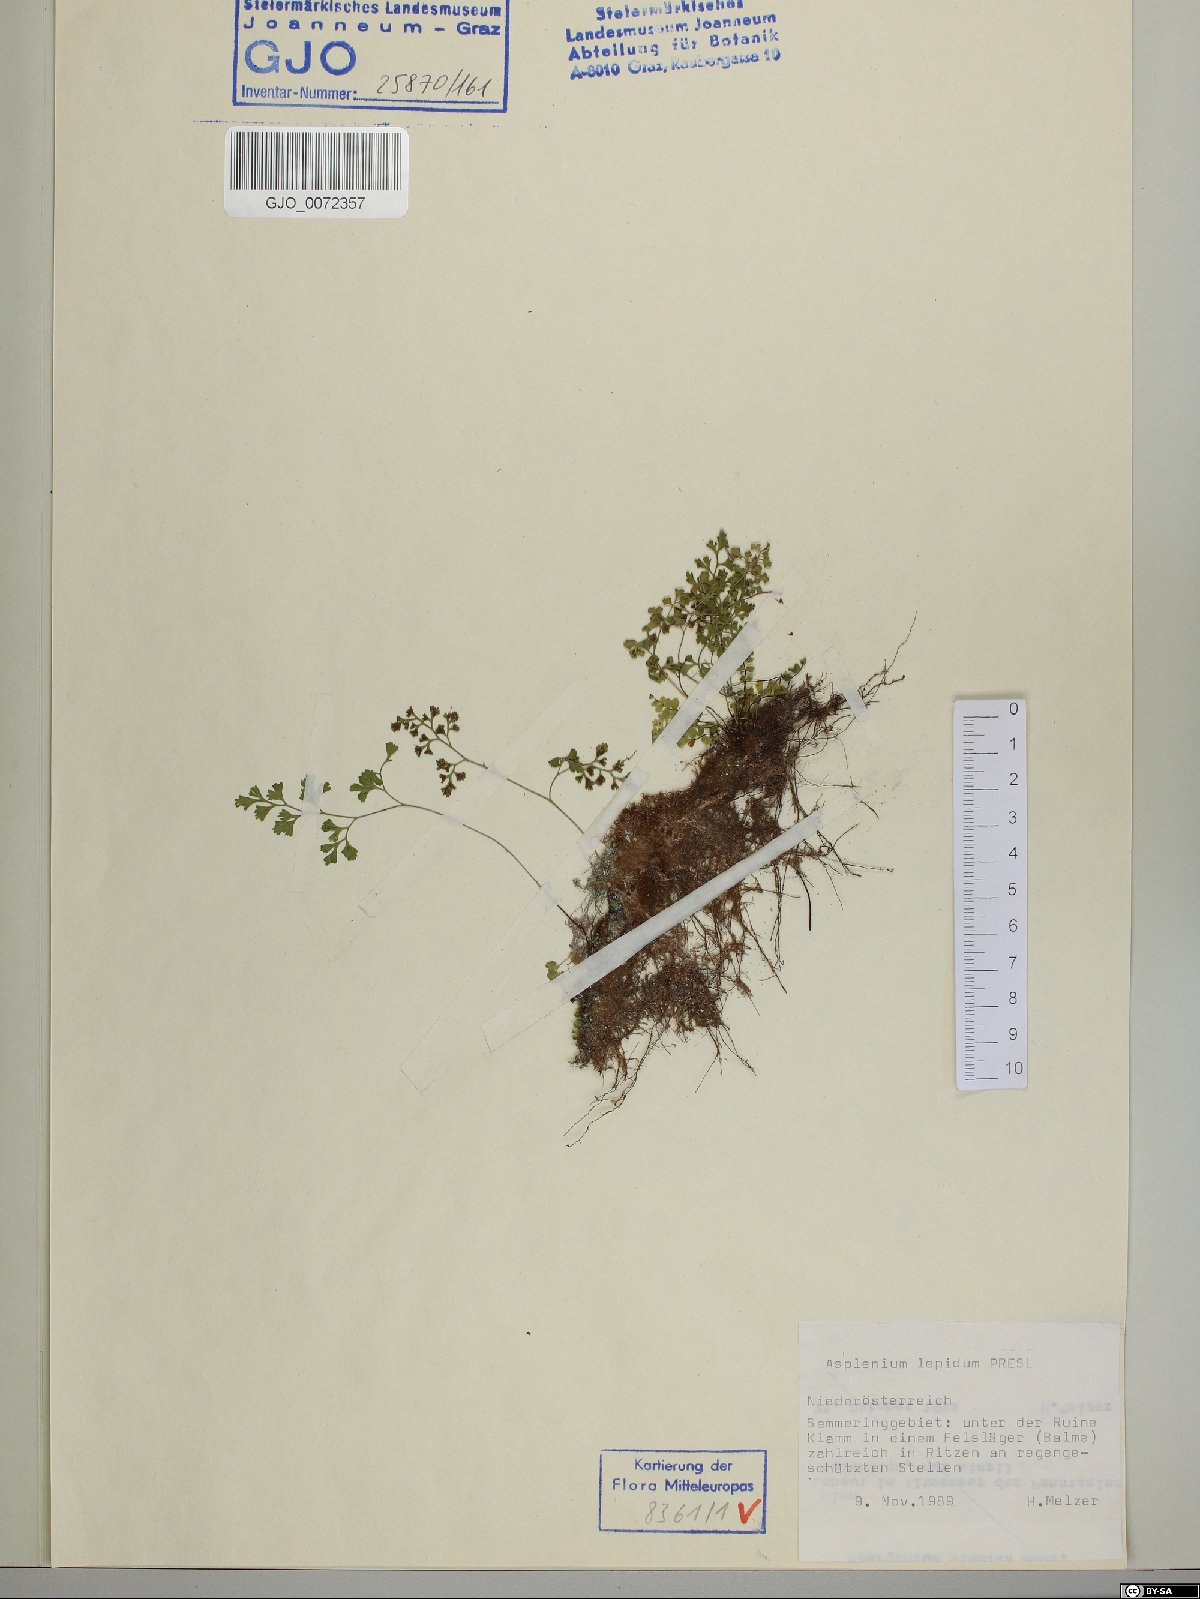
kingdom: Plantae
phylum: Tracheophyta
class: Polypodiopsida
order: Polypodiales
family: Aspleniaceae
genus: Asplenium
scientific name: Asplenium lepidum
